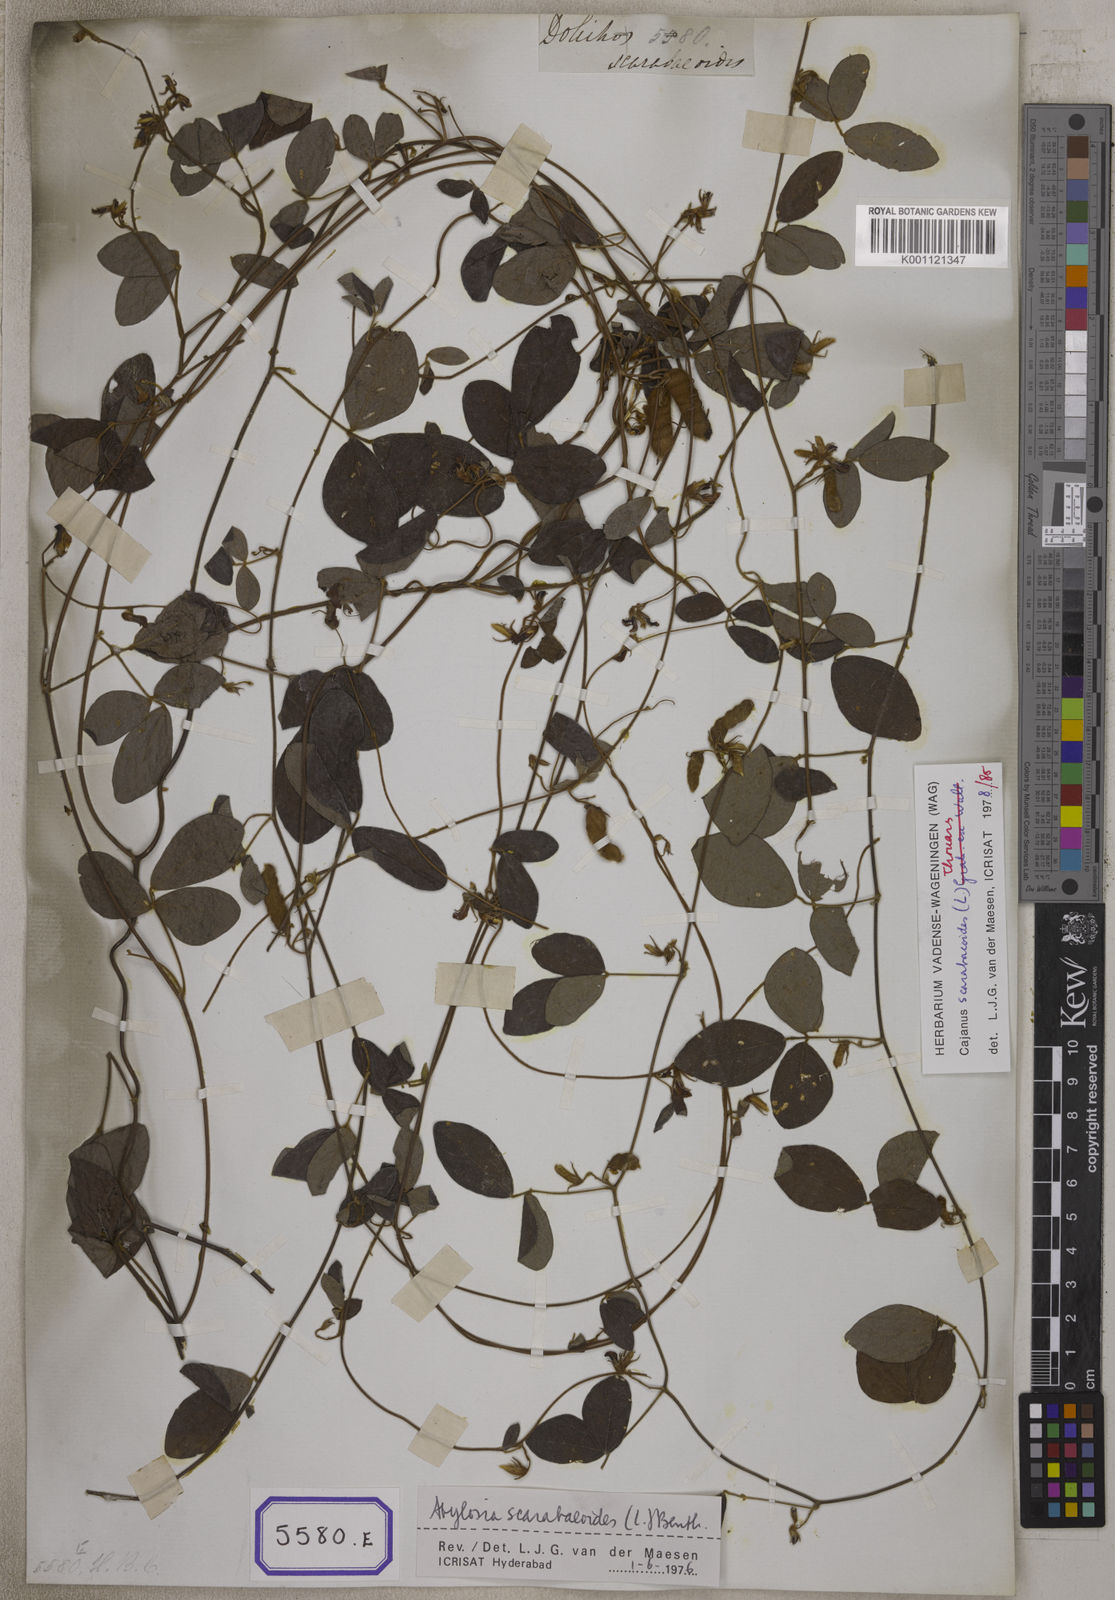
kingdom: Plantae
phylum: Tracheophyta
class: Magnoliopsida
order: Fabales
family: Fabaceae
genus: Cajanus
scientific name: Cajanus scarabaeoides
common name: Showy pigeonpea
